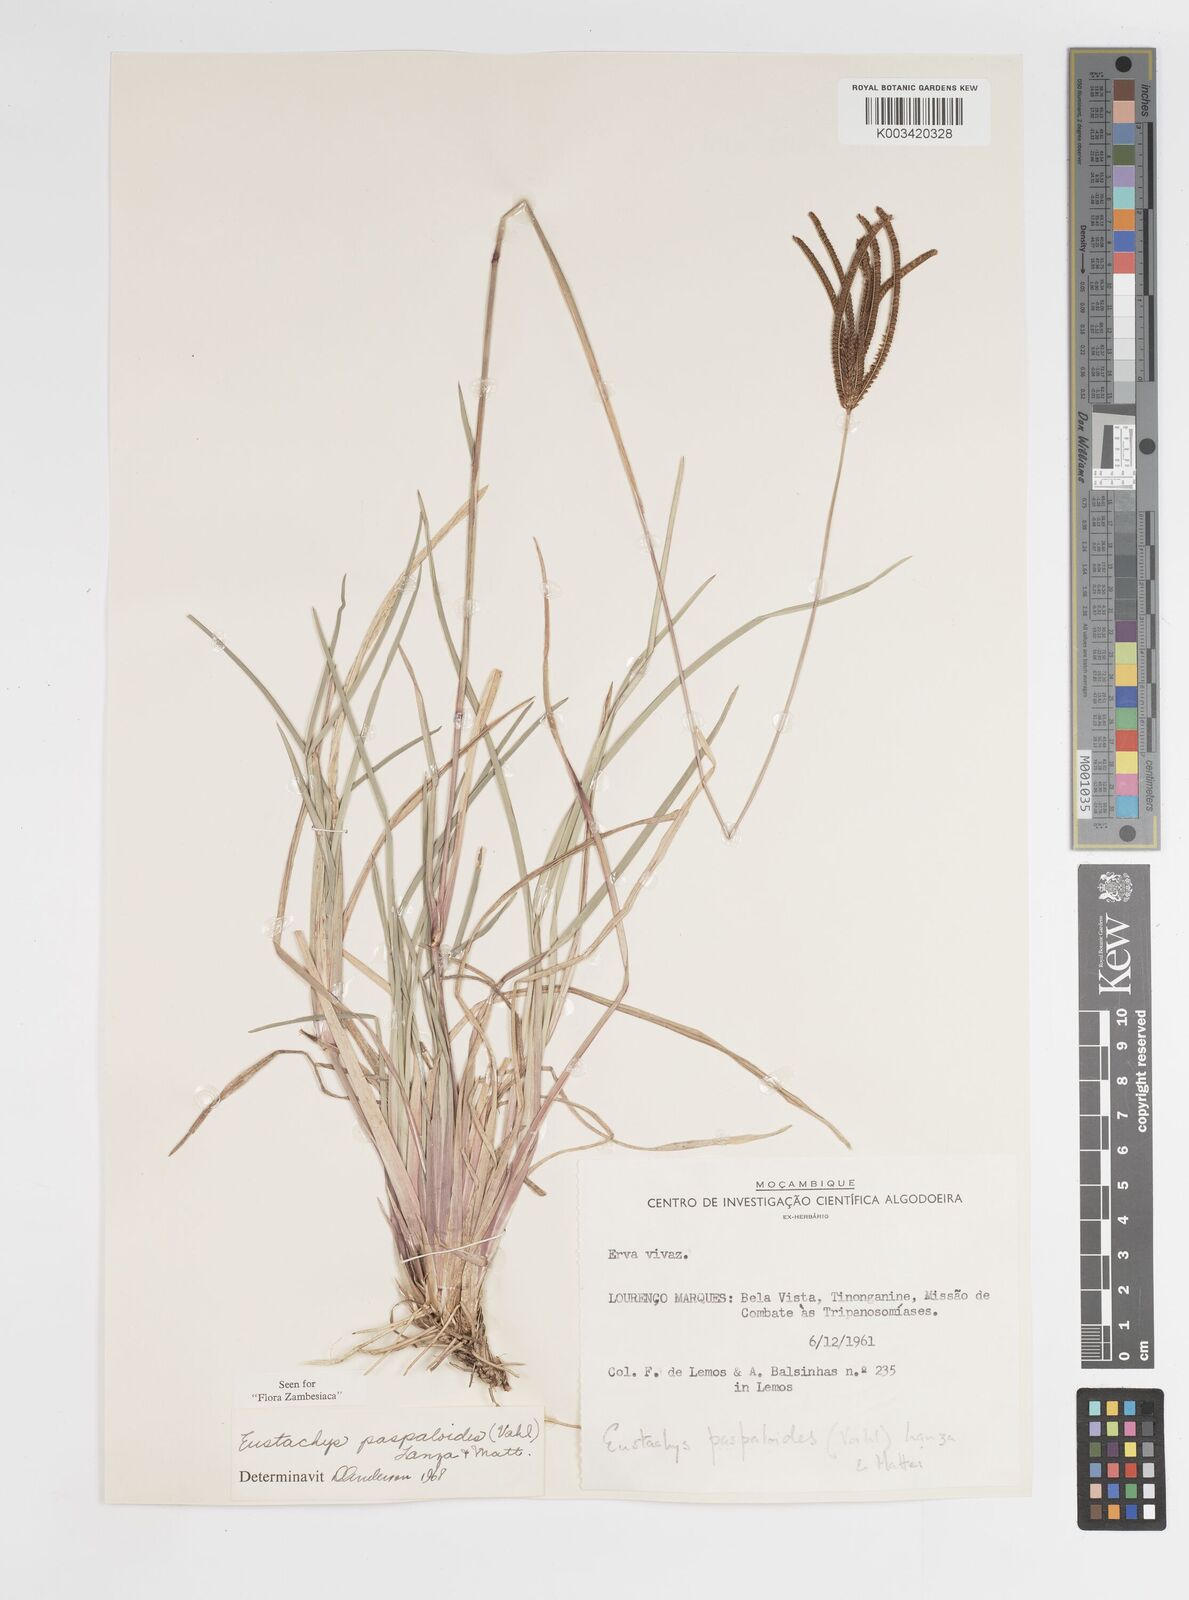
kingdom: Plantae
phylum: Tracheophyta
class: Liliopsida
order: Poales
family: Poaceae
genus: Eustachys
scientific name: Eustachys paspaloides
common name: Caribbean fingergrass
